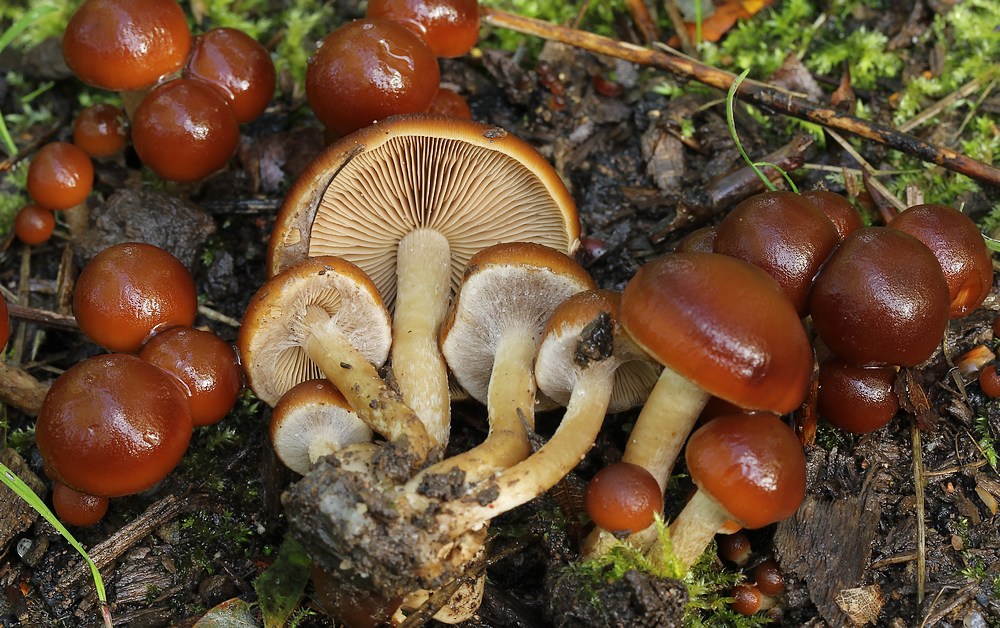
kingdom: Fungi
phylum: Basidiomycota
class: Agaricomycetes
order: Agaricales
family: Psathyrellaceae
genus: Psathyrella
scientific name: Psathyrella piluliformis
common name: lysstokket mørkhat
